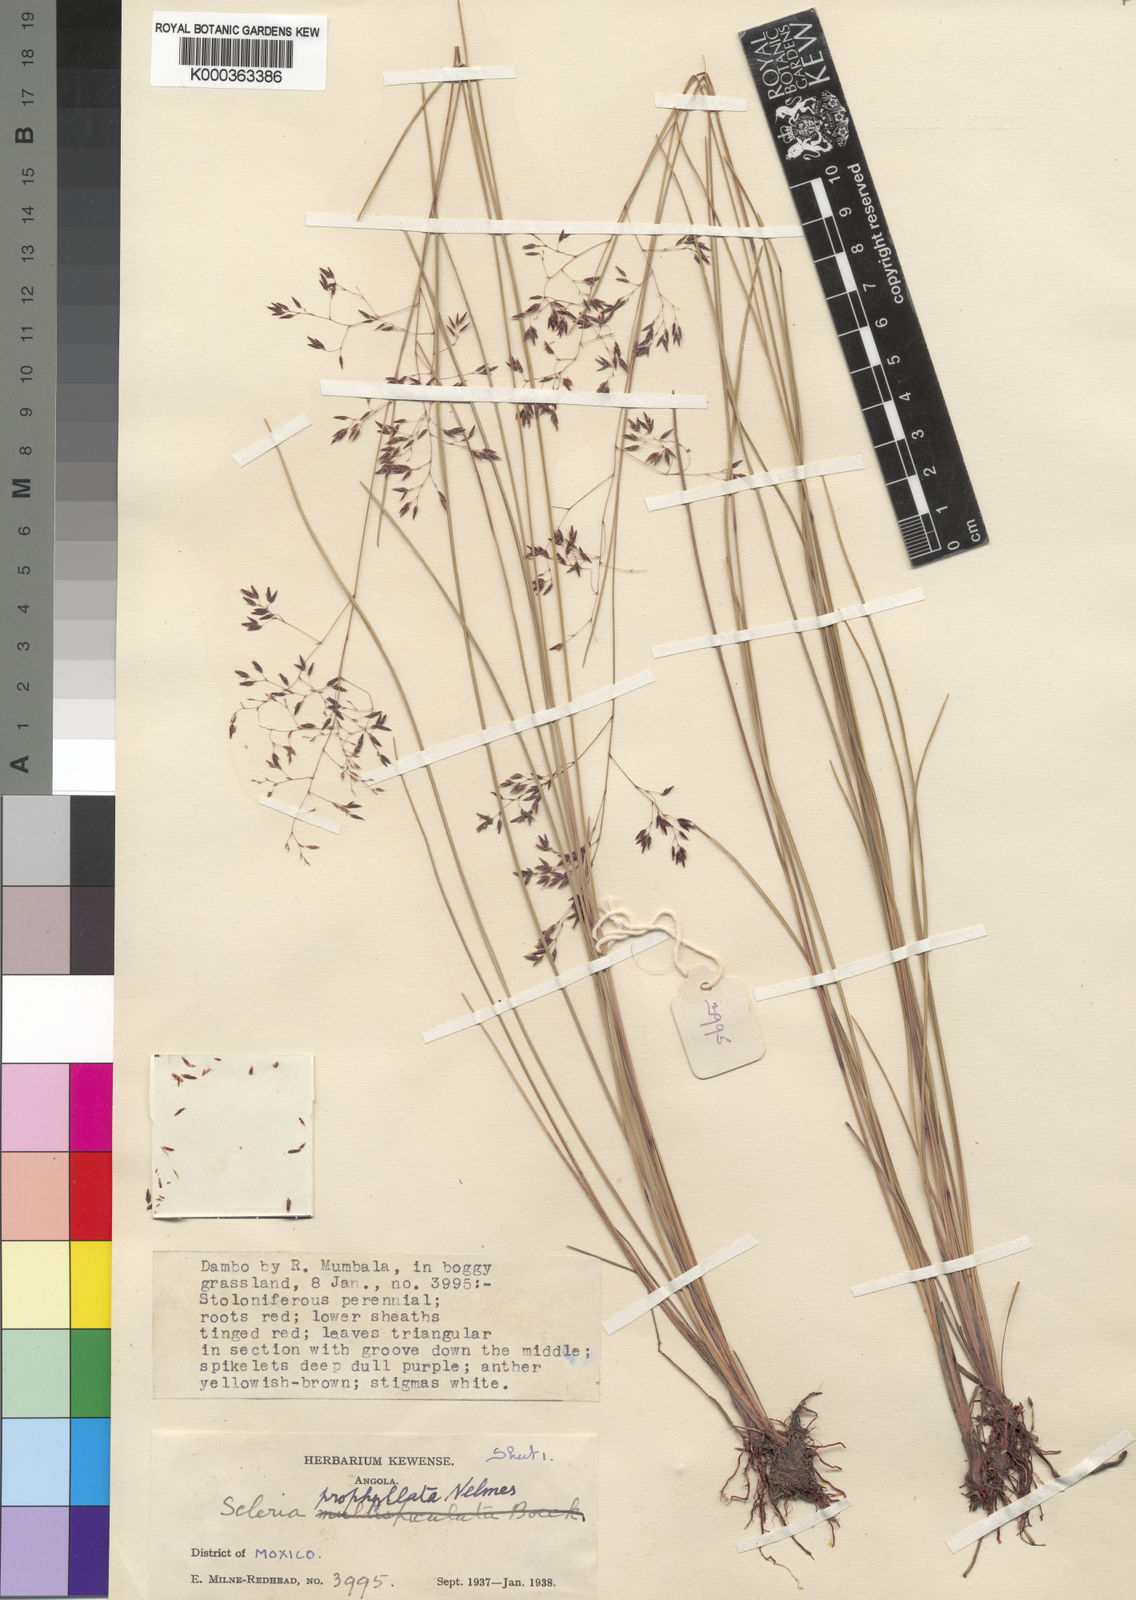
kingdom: Plantae
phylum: Tracheophyta
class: Liliopsida
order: Poales
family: Cyperaceae
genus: Scleria
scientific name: Scleria pooides
